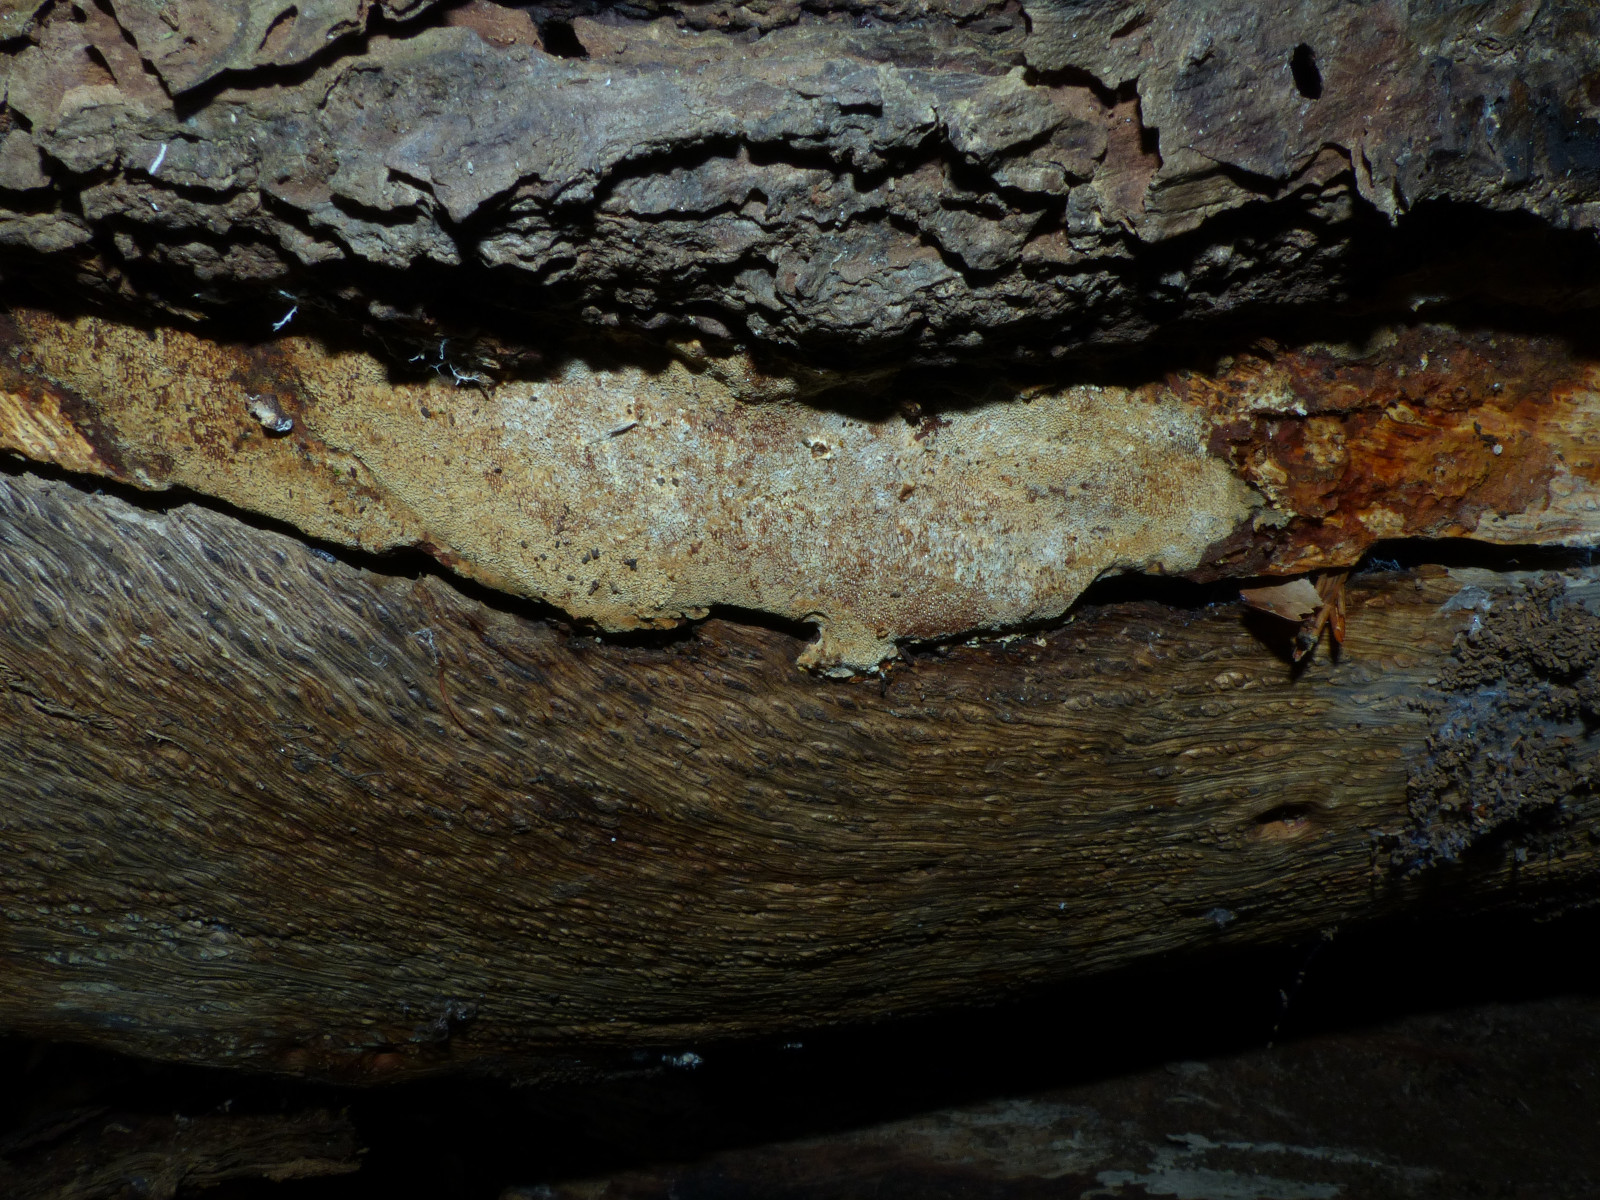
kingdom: Fungi
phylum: Basidiomycota
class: Agaricomycetes
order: Hymenochaetales
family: Hymenochaetaceae
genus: Fuscoporia
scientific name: Fuscoporia ferrea
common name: skorpe-ildporesvamp
